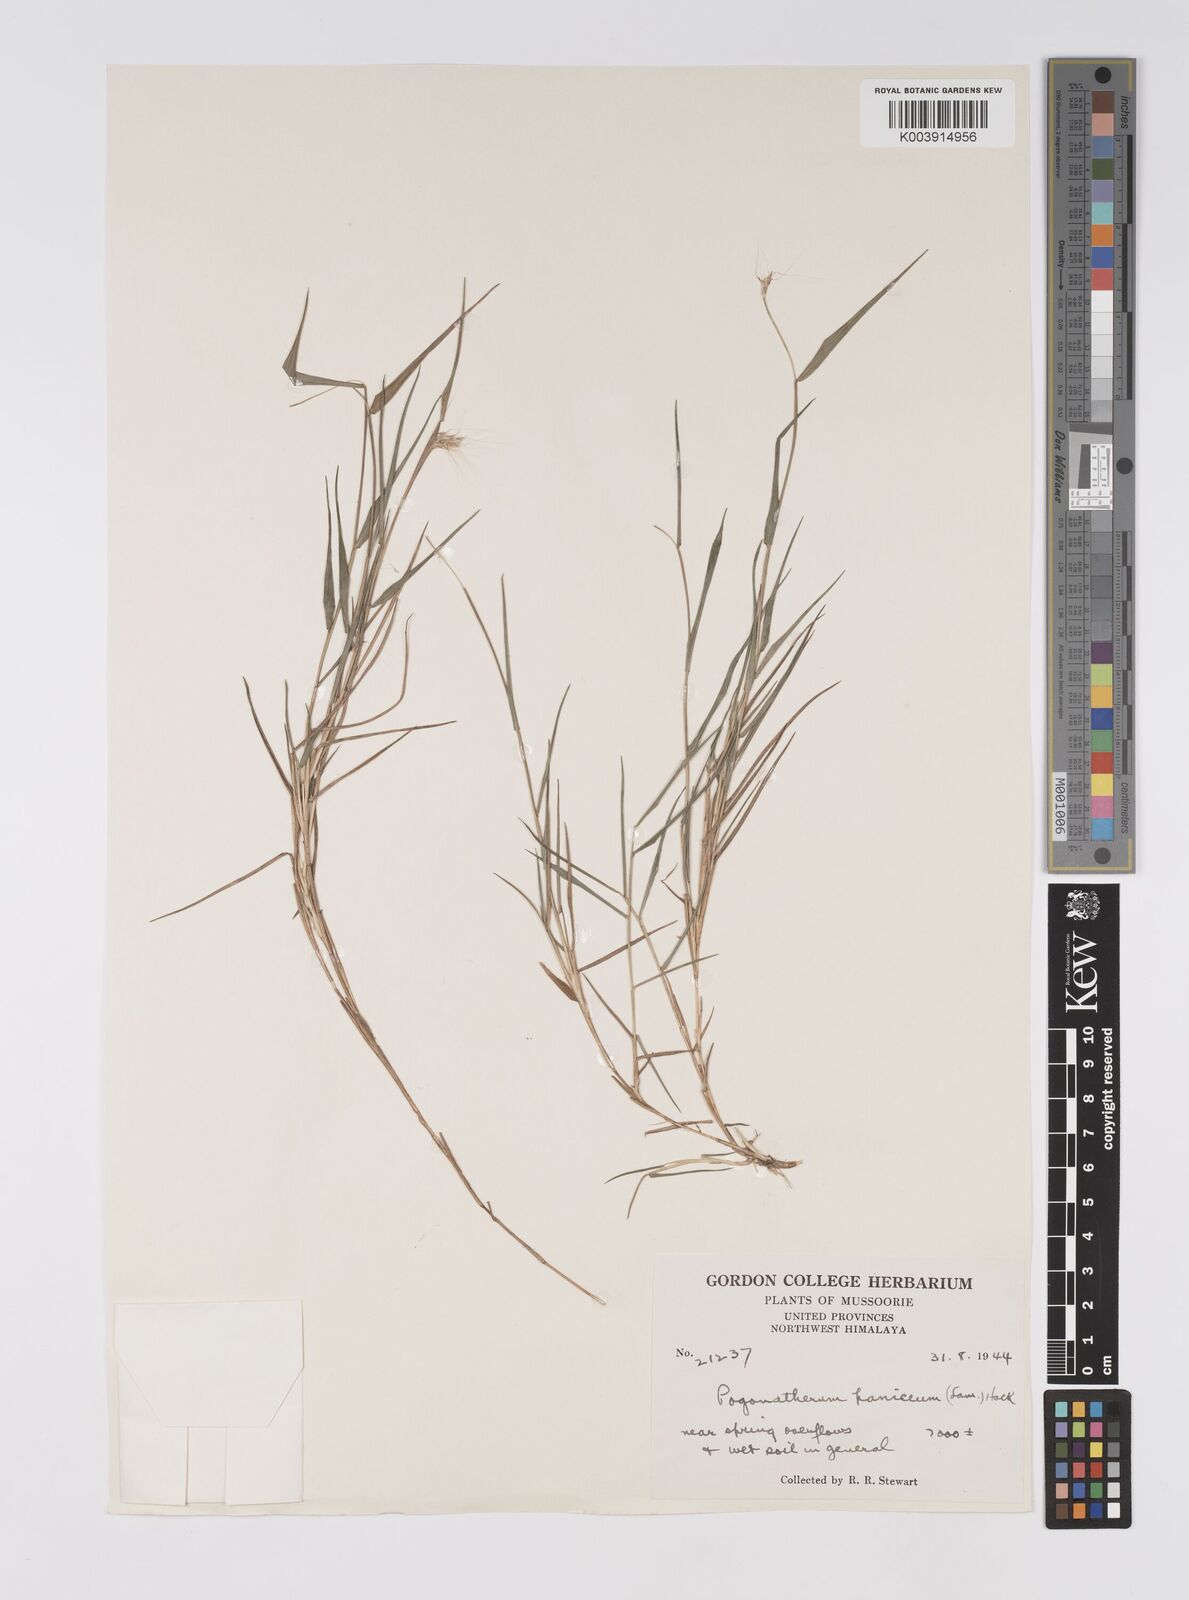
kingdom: Plantae
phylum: Tracheophyta
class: Liliopsida
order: Poales
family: Poaceae
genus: Pogonatherum
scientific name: Pogonatherum paniceum
